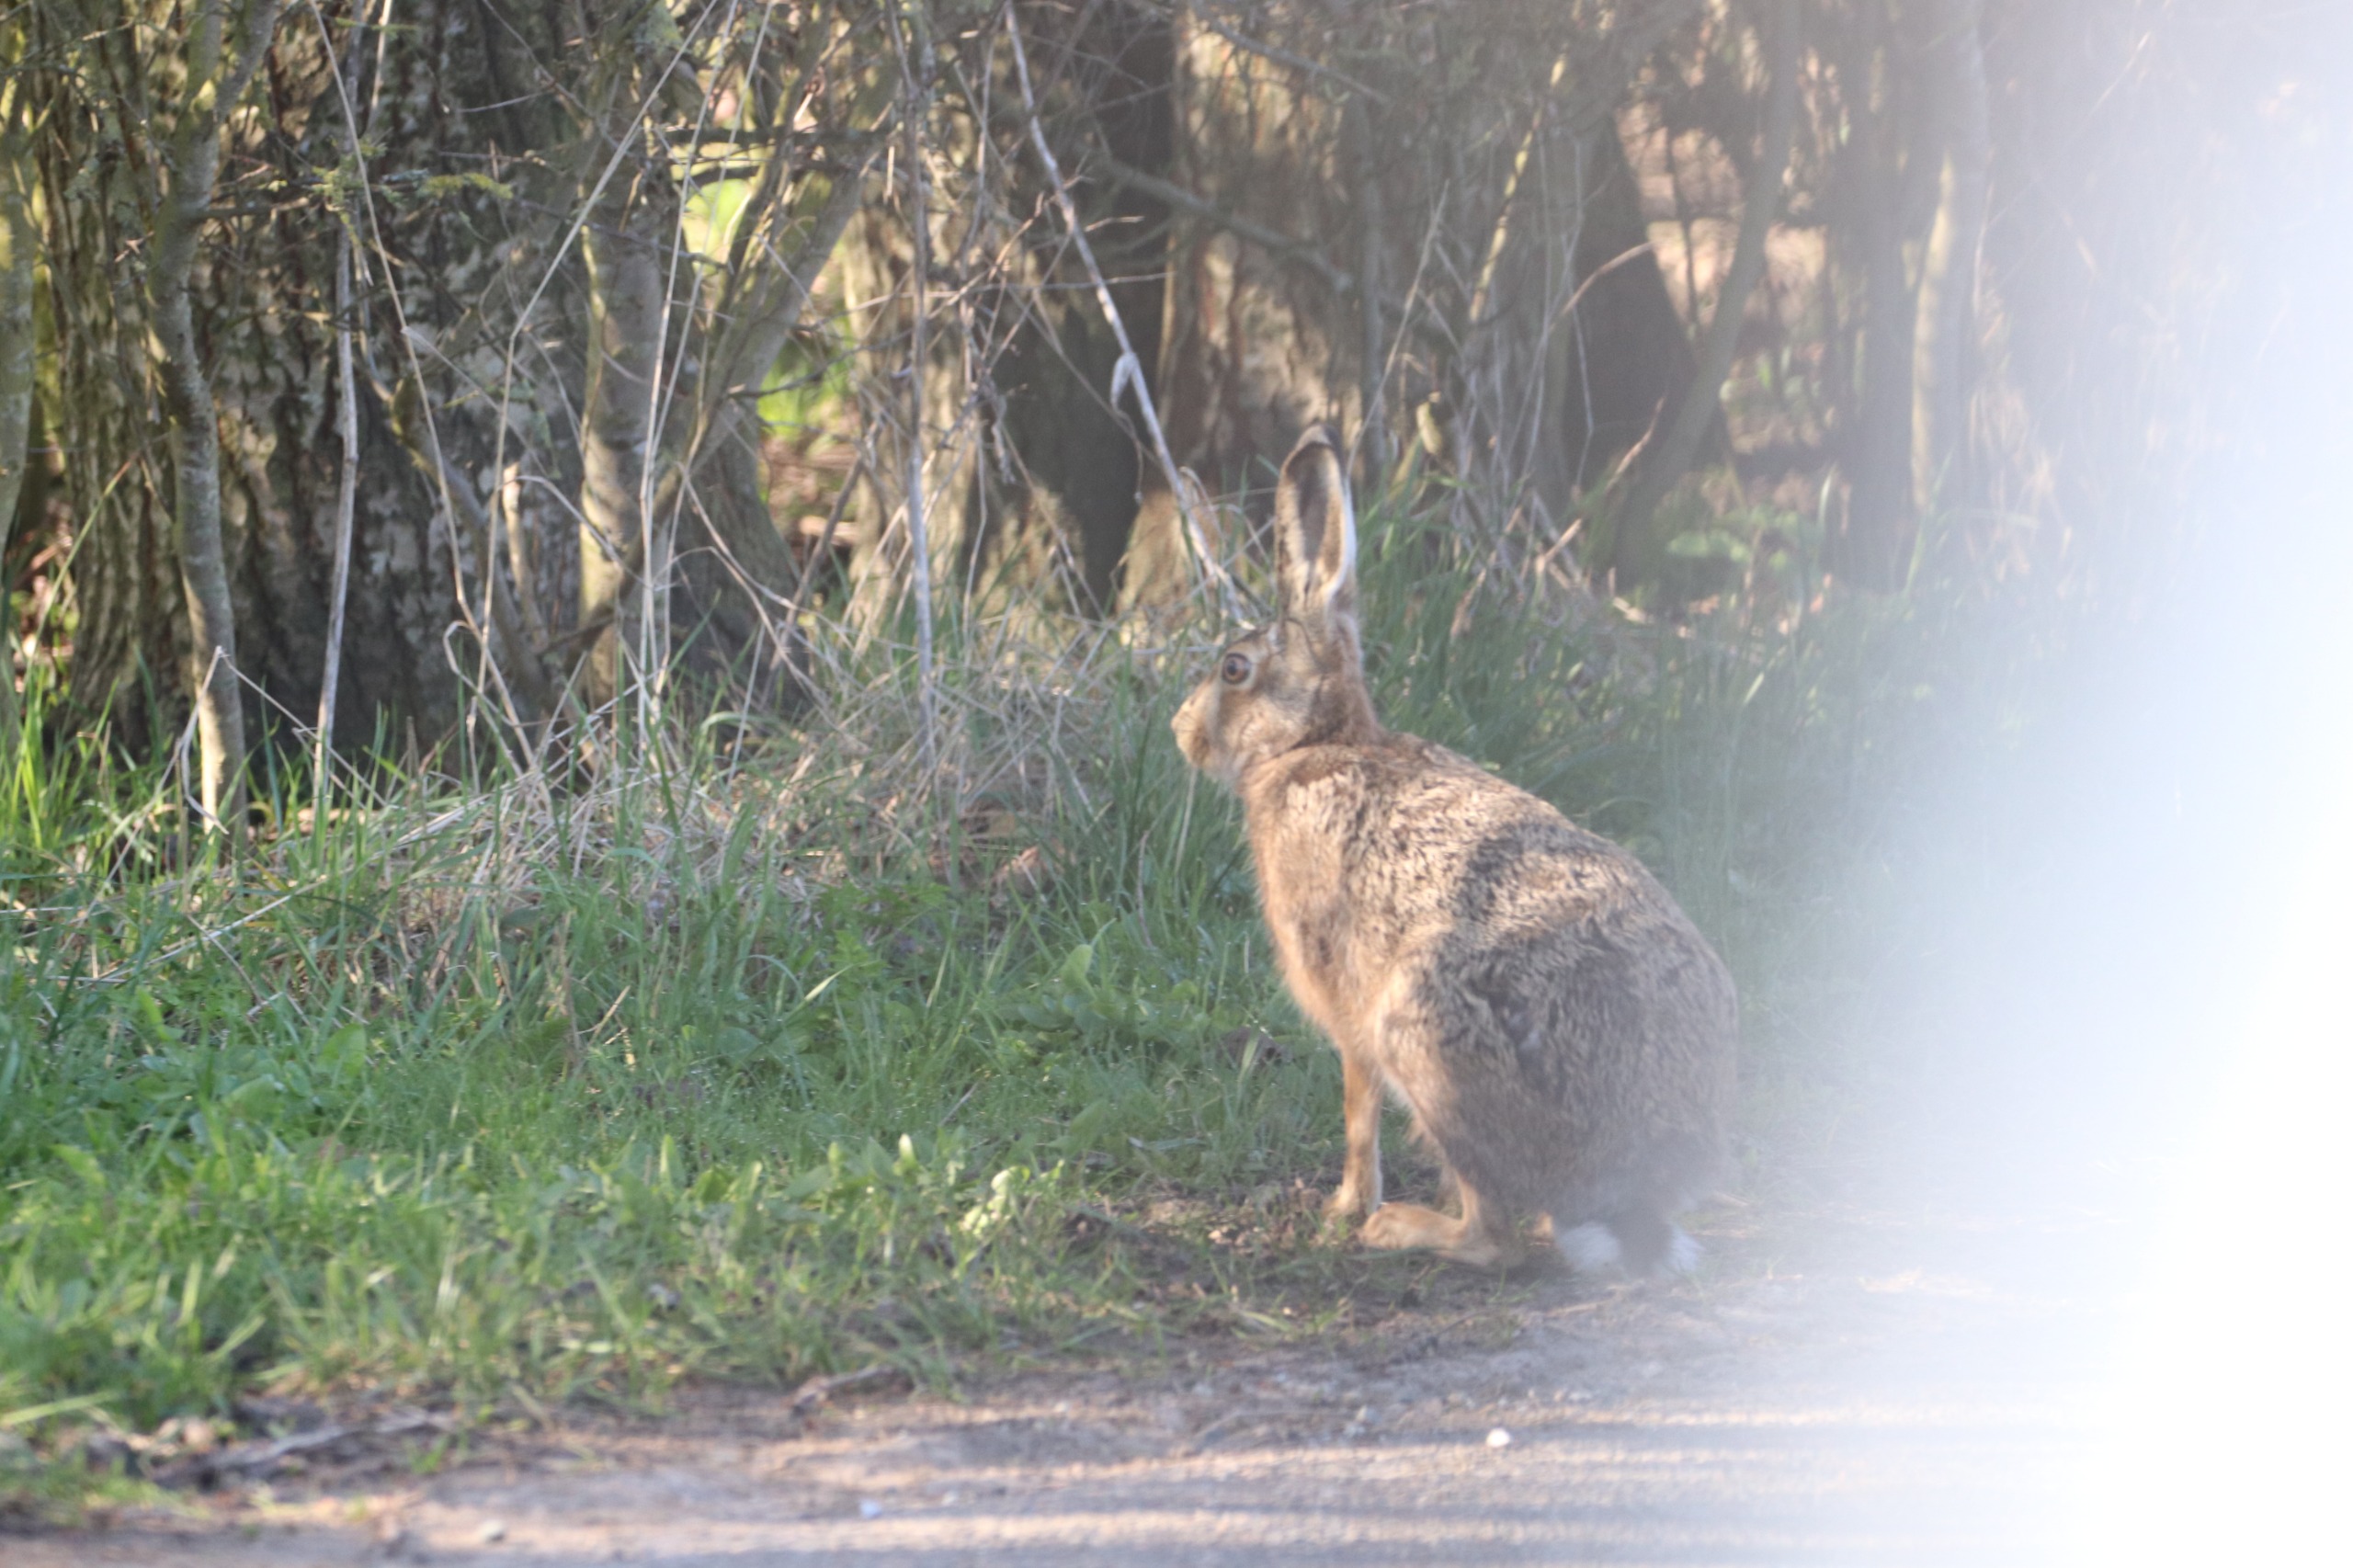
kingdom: Animalia
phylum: Chordata
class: Mammalia
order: Lagomorpha
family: Leporidae
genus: Lepus
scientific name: Lepus europaeus
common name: Hare
